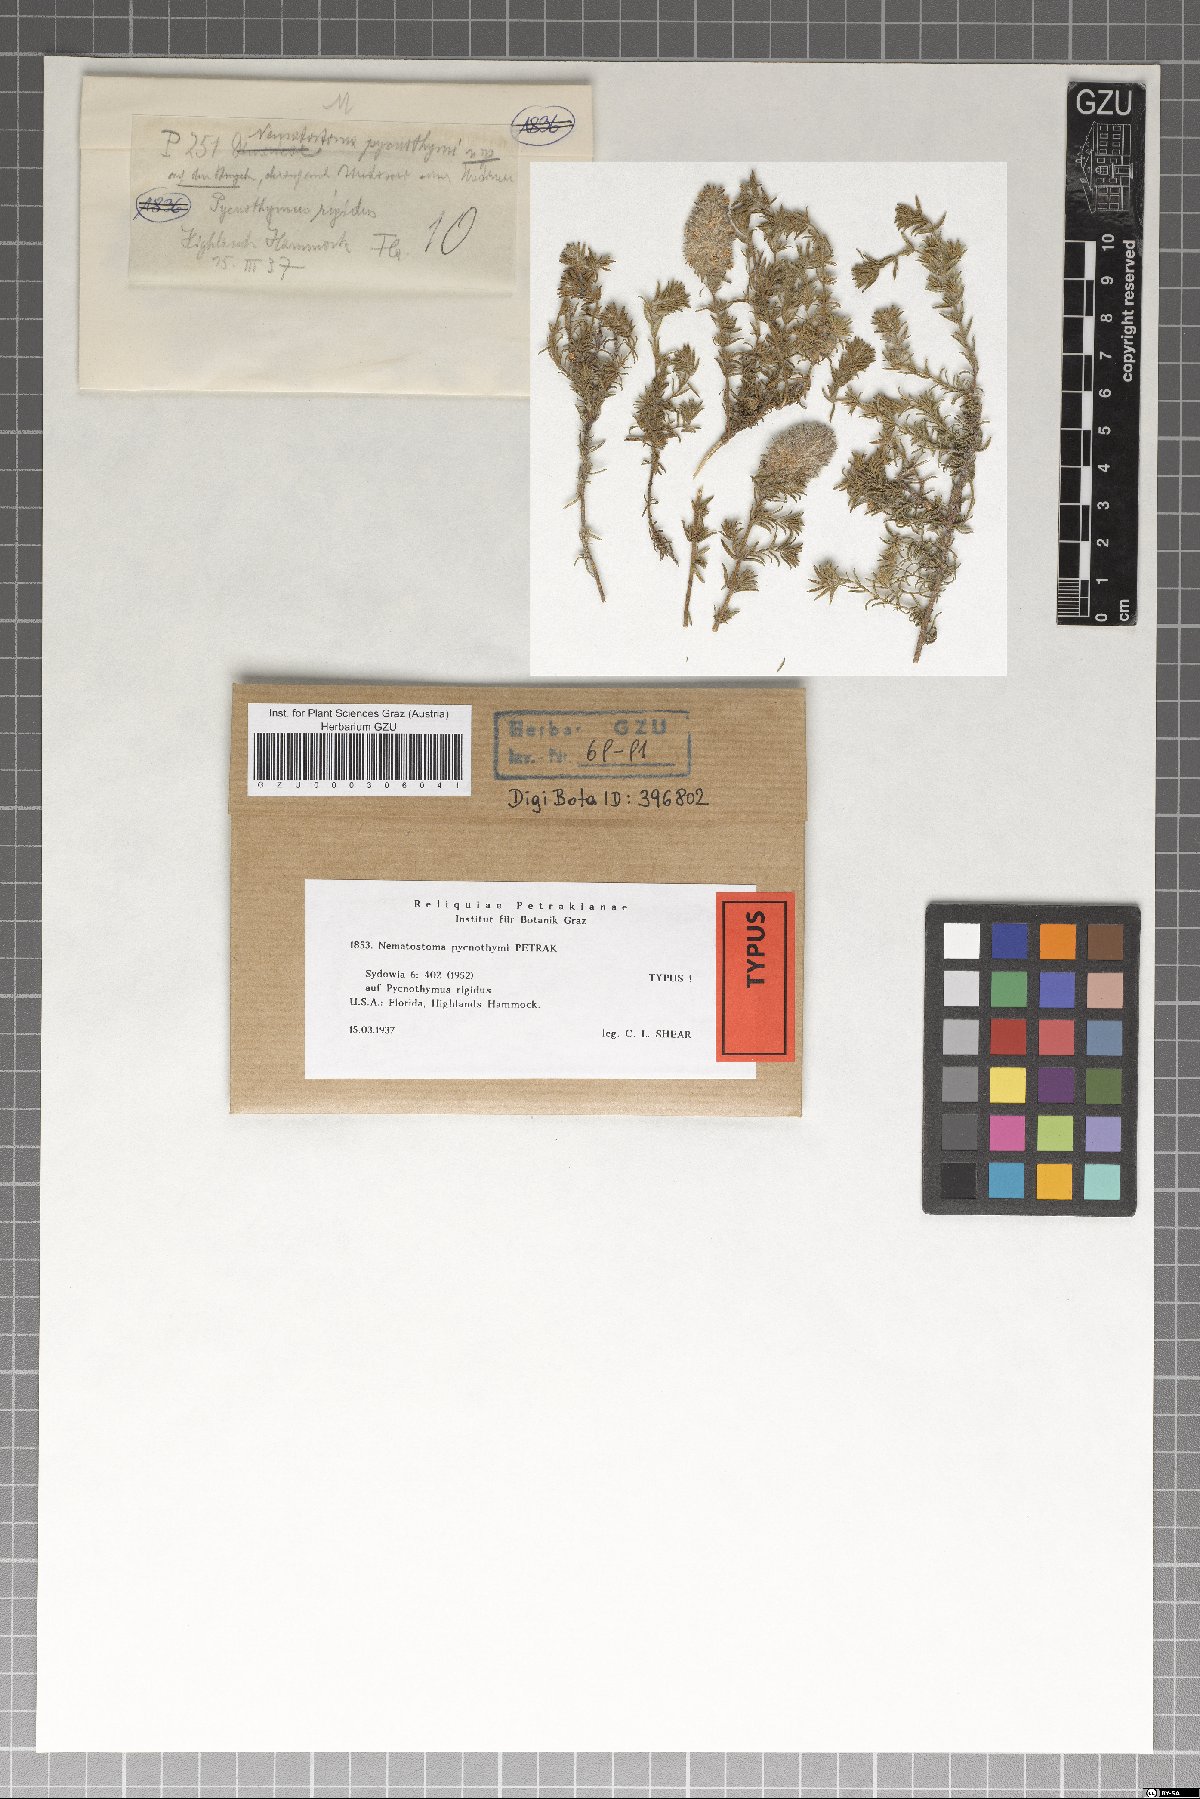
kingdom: Fungi
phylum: Ascomycota
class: Dothideomycetes
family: Pseudoperisporiaceae
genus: Nematostoma
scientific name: Nematostoma pycnothymi
